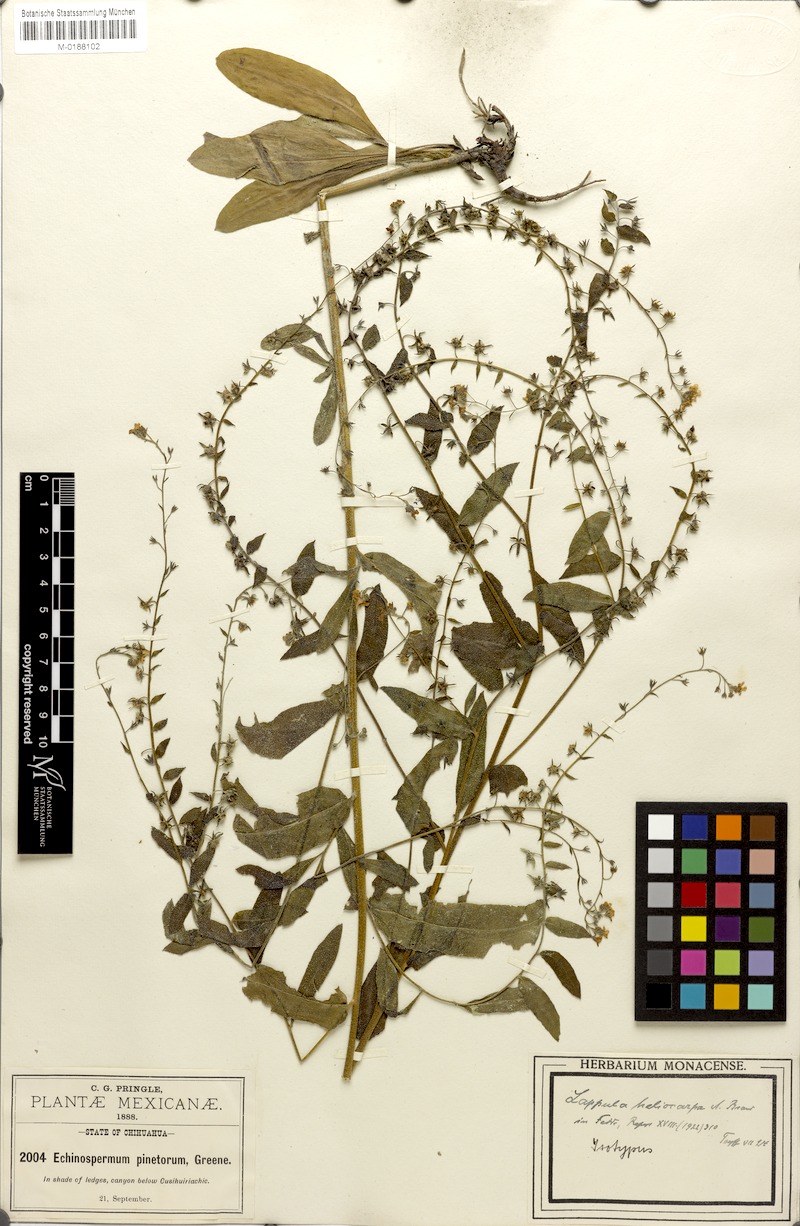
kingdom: Plantae
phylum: Tracheophyta
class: Magnoliopsida
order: Boraginales
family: Boraginaceae
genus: Hackelia
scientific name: Hackelia ursina
